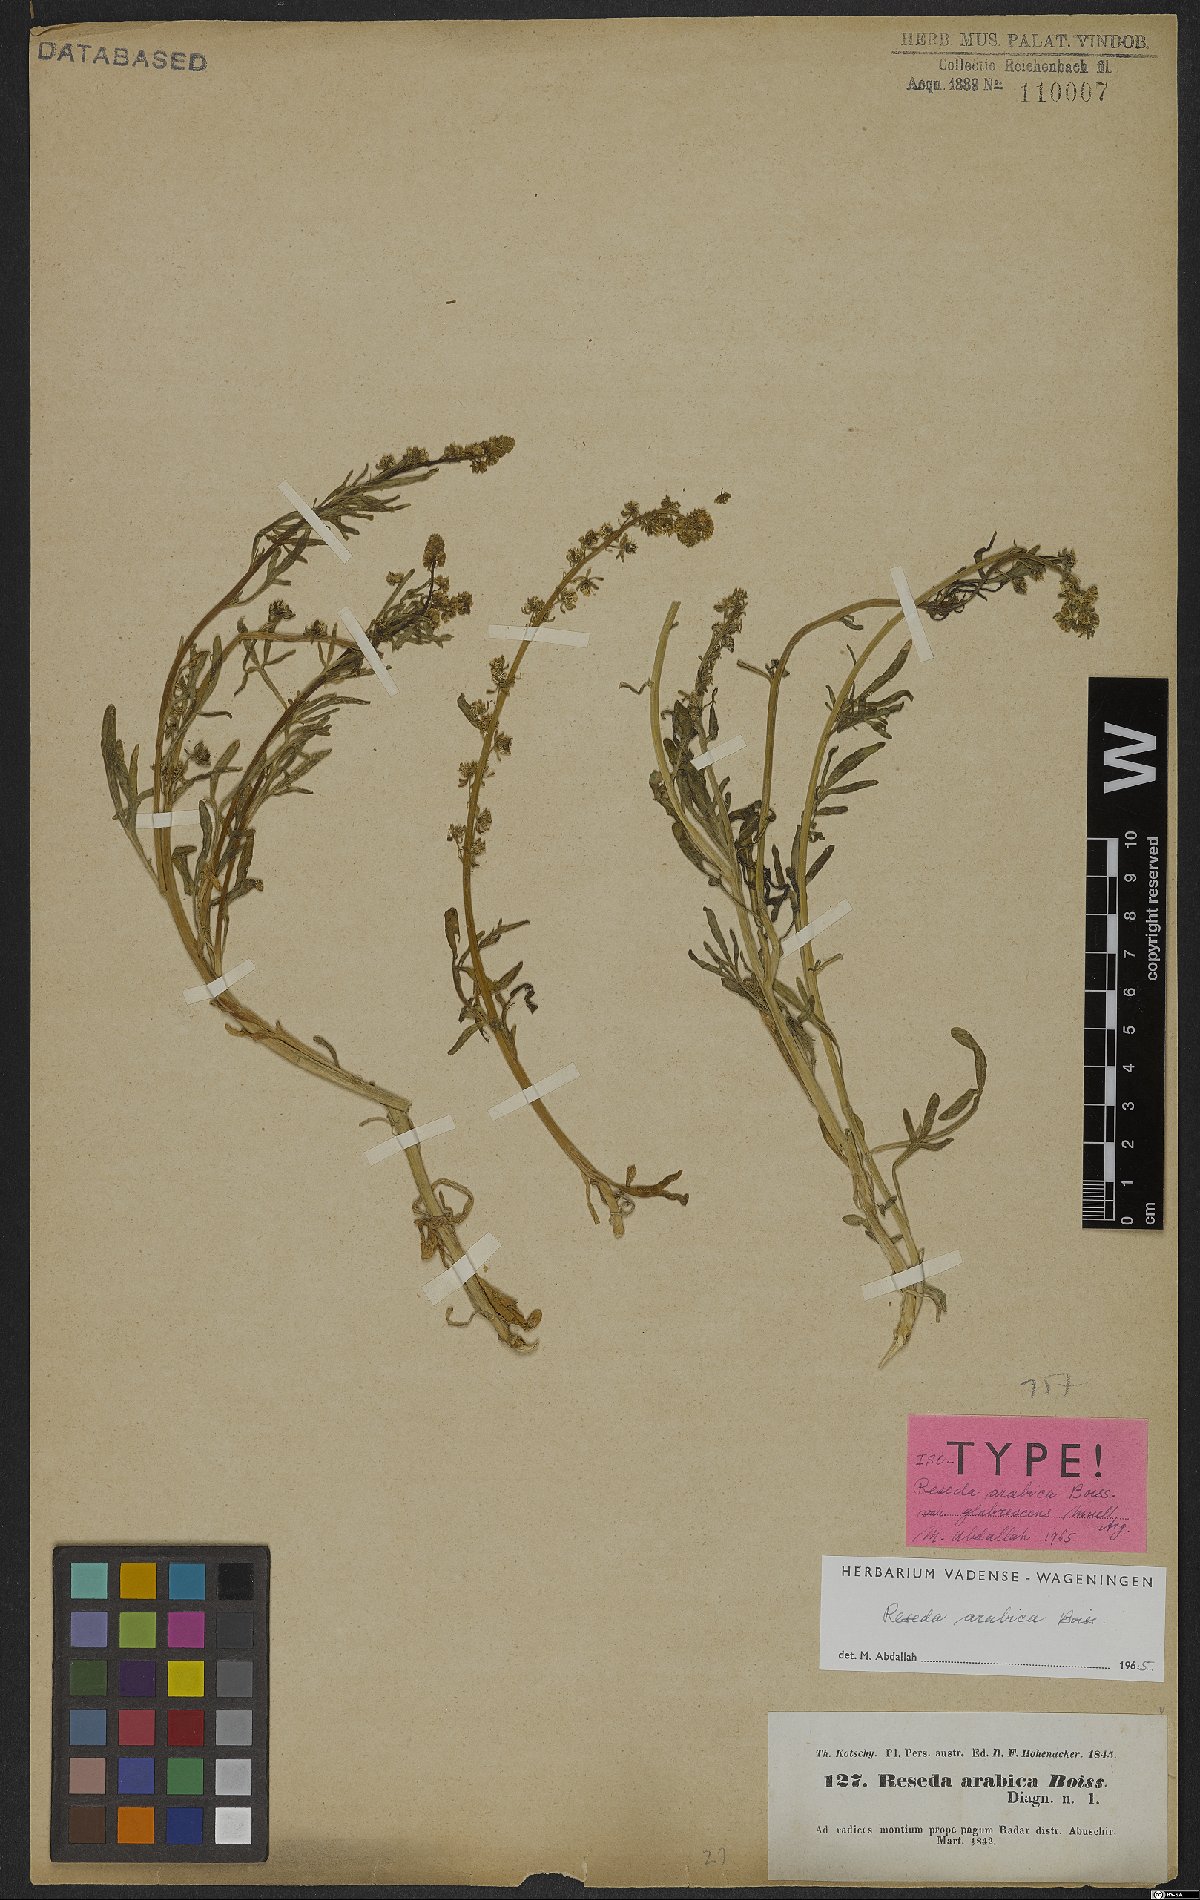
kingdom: Plantae
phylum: Tracheophyta
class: Magnoliopsida
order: Brassicales
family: Resedaceae
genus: Reseda
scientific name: Reseda arabica
